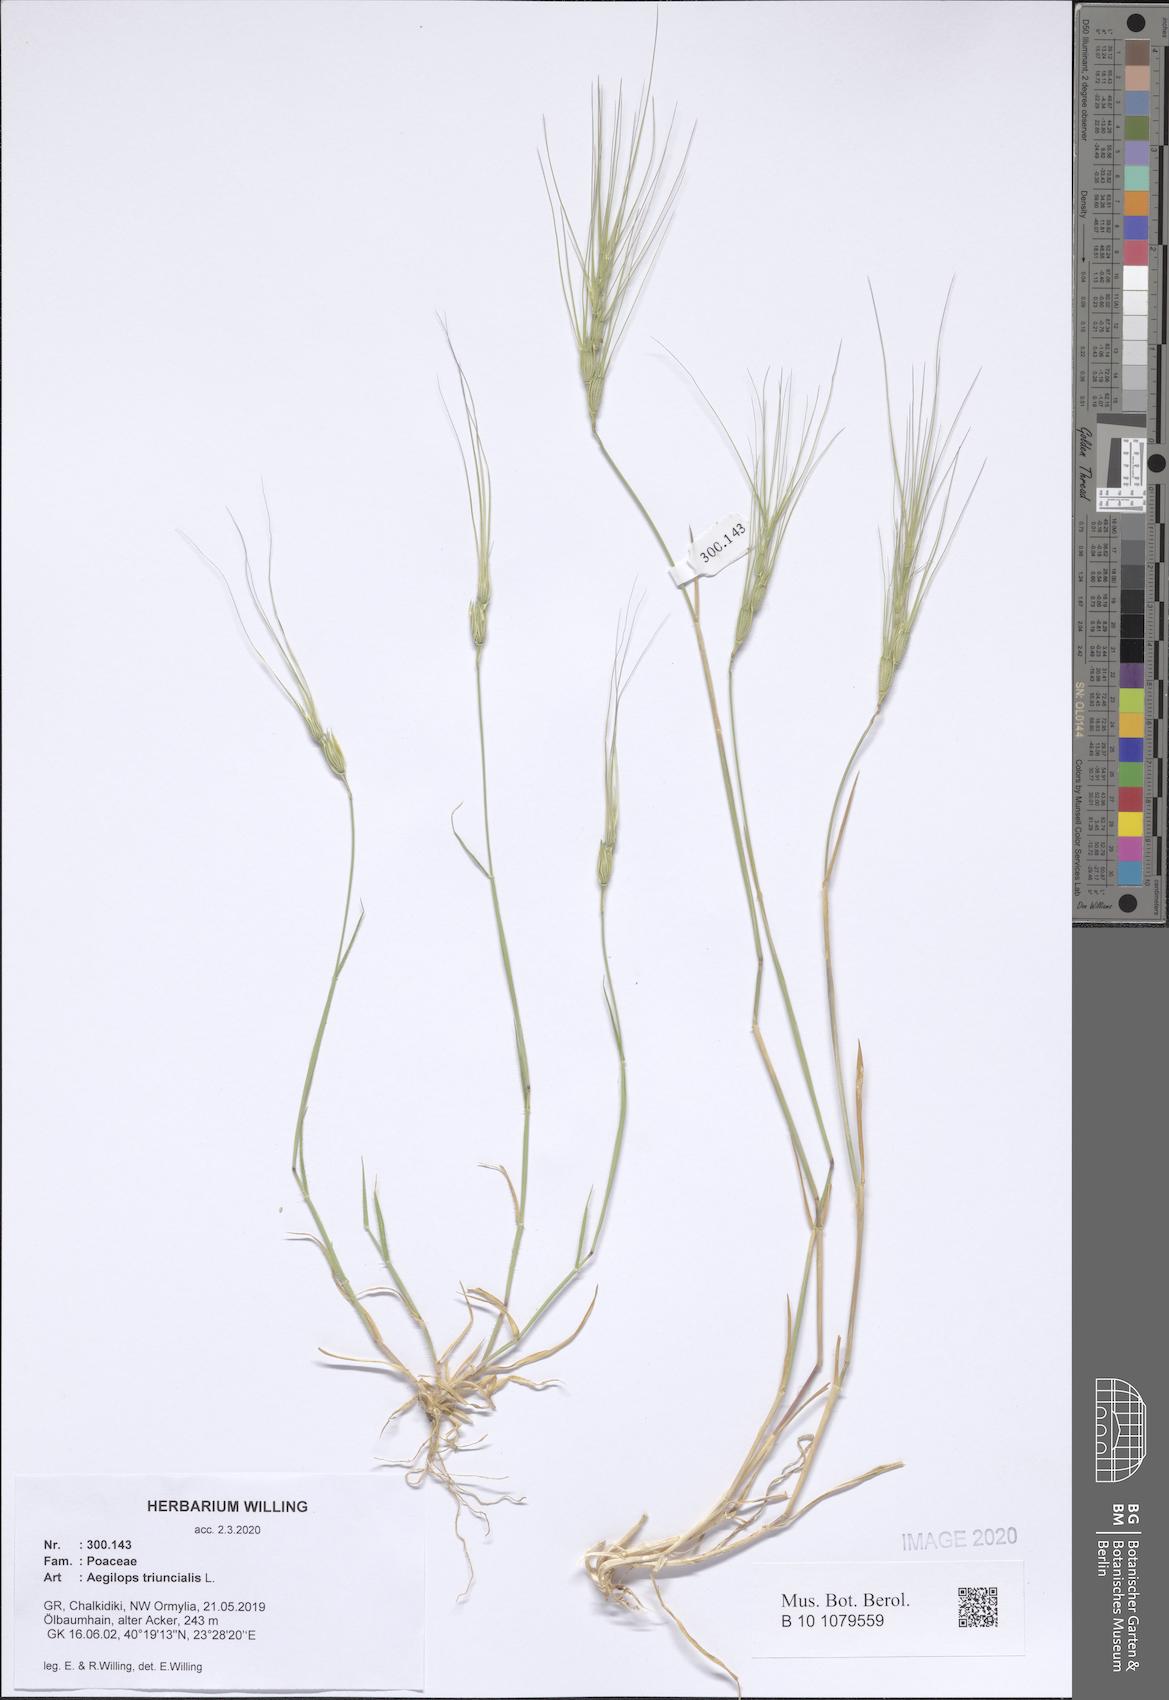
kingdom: Plantae
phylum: Tracheophyta
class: Liliopsida
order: Poales
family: Poaceae
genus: Aegilops
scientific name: Aegilops triuncialis
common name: Barb goat grass
